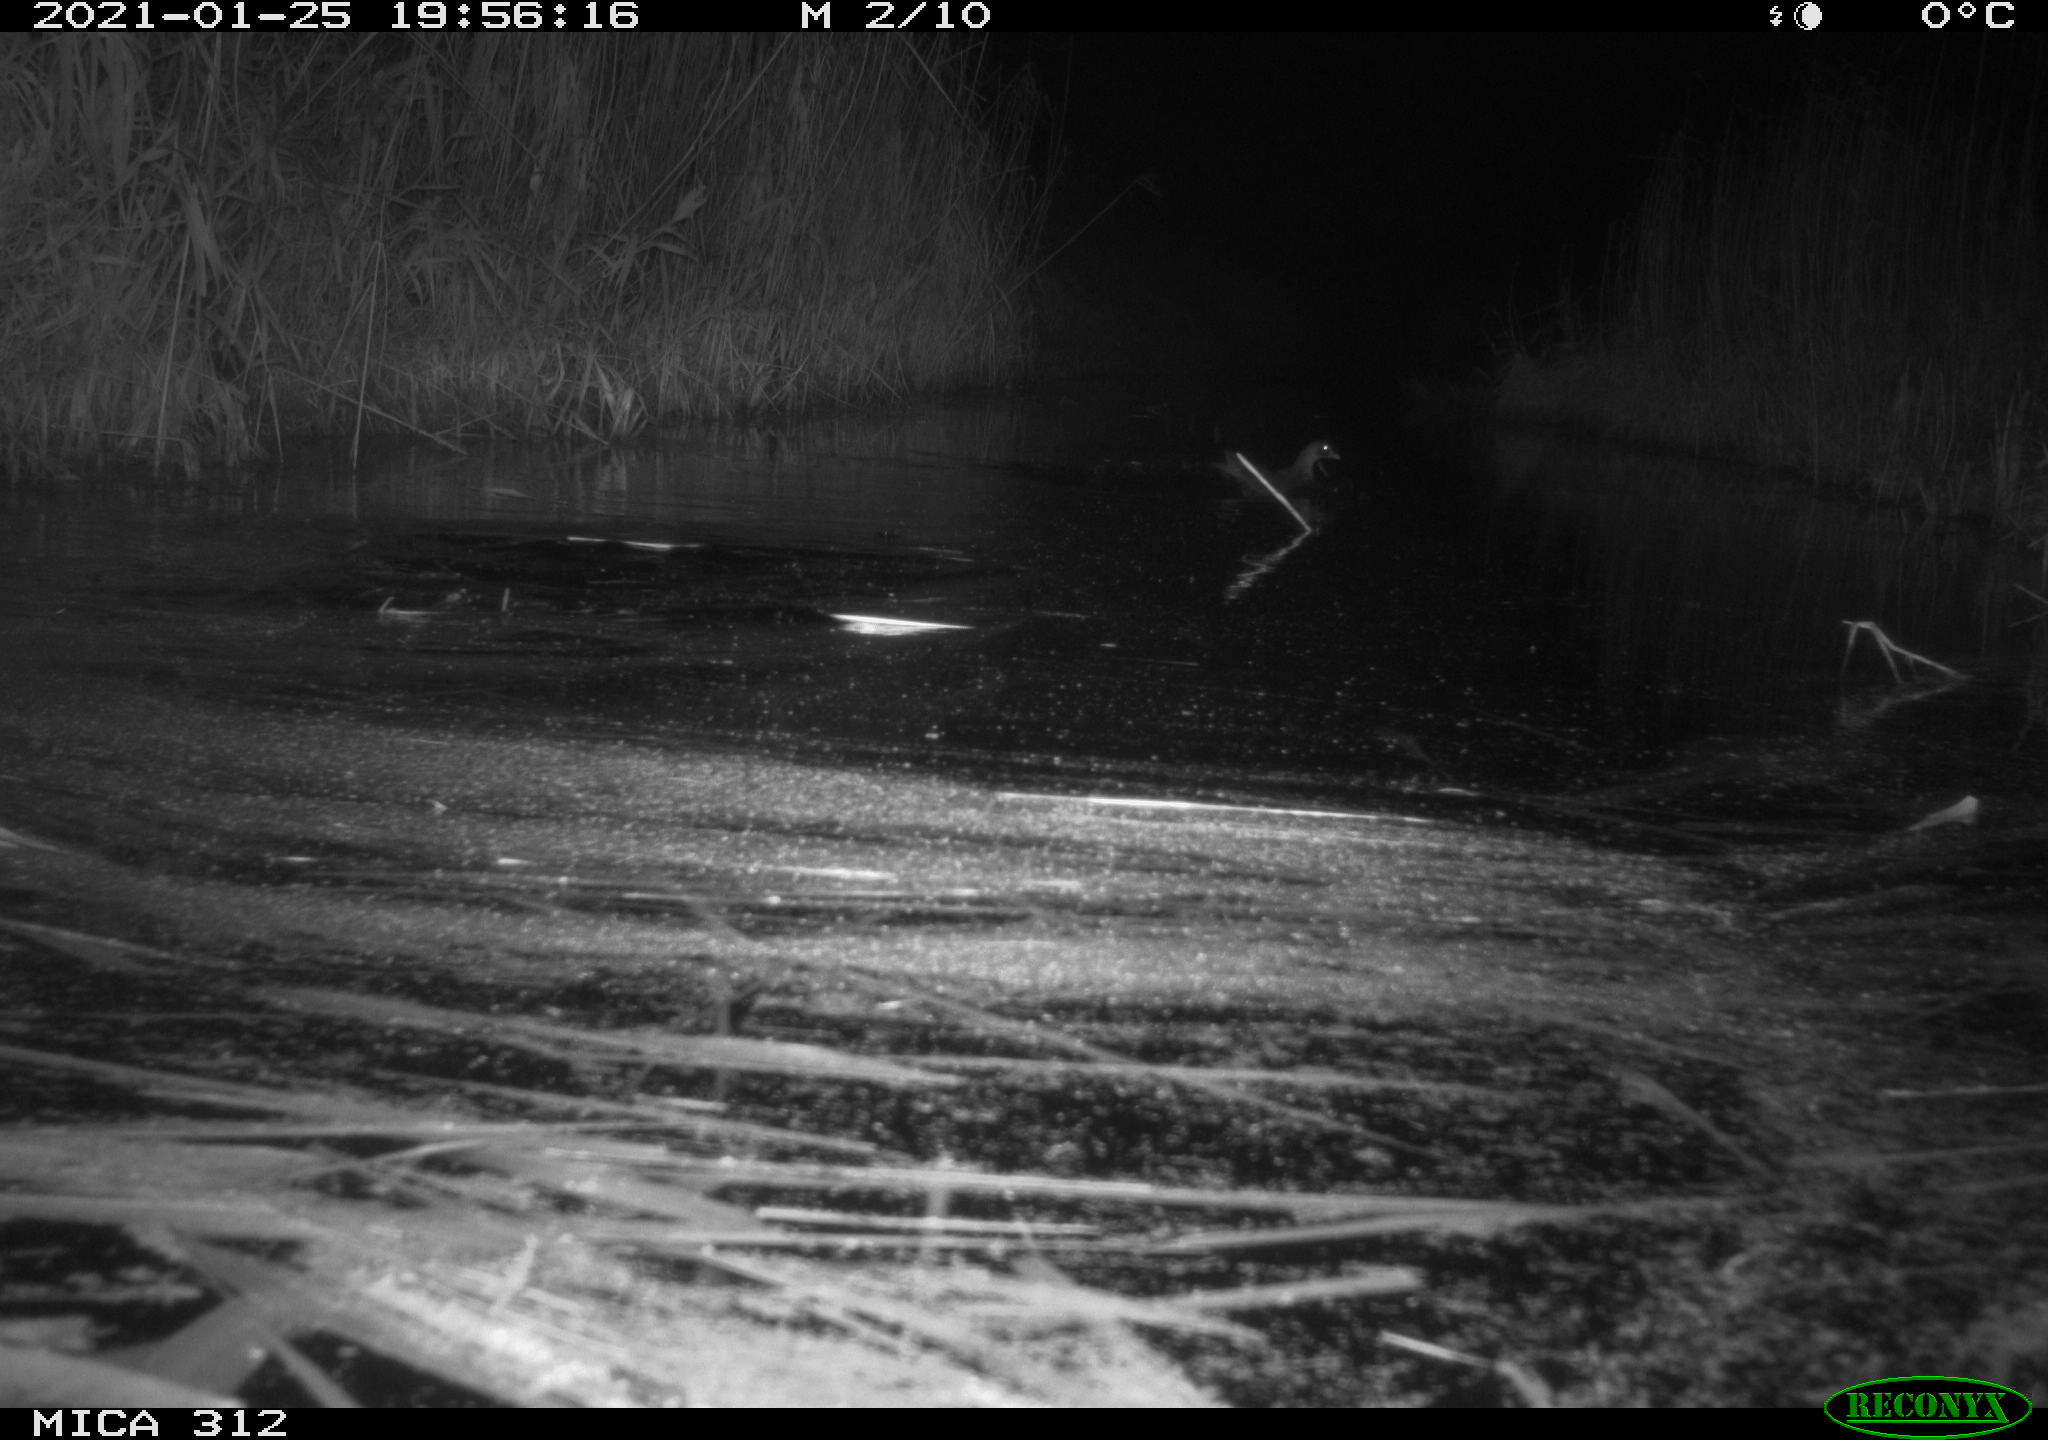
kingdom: Animalia
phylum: Chordata
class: Aves
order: Anseriformes
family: Anatidae
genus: Anas
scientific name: Anas
